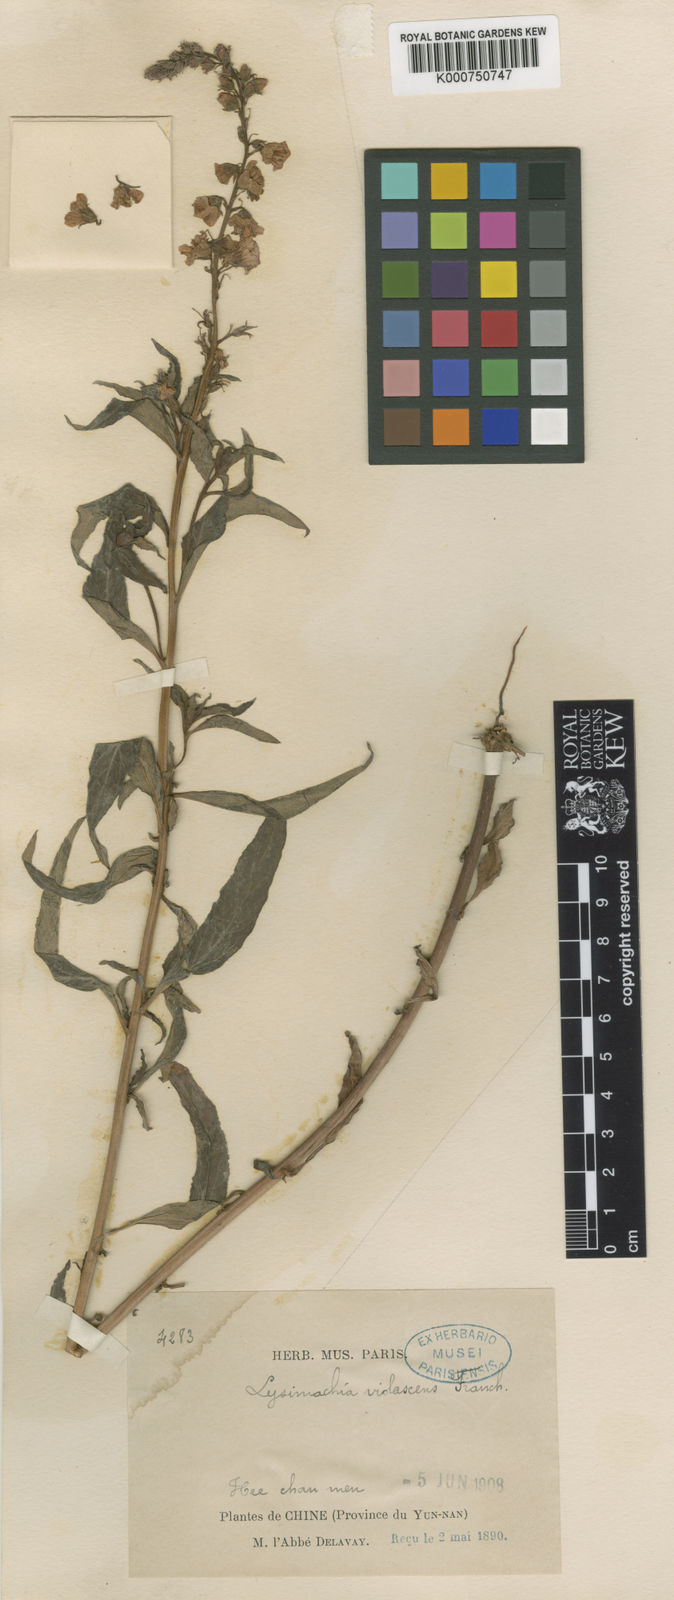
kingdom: Plantae
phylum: Tracheophyta
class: Magnoliopsida
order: Ericales
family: Primulaceae
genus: Lysimachia
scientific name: Lysimachia violascens
